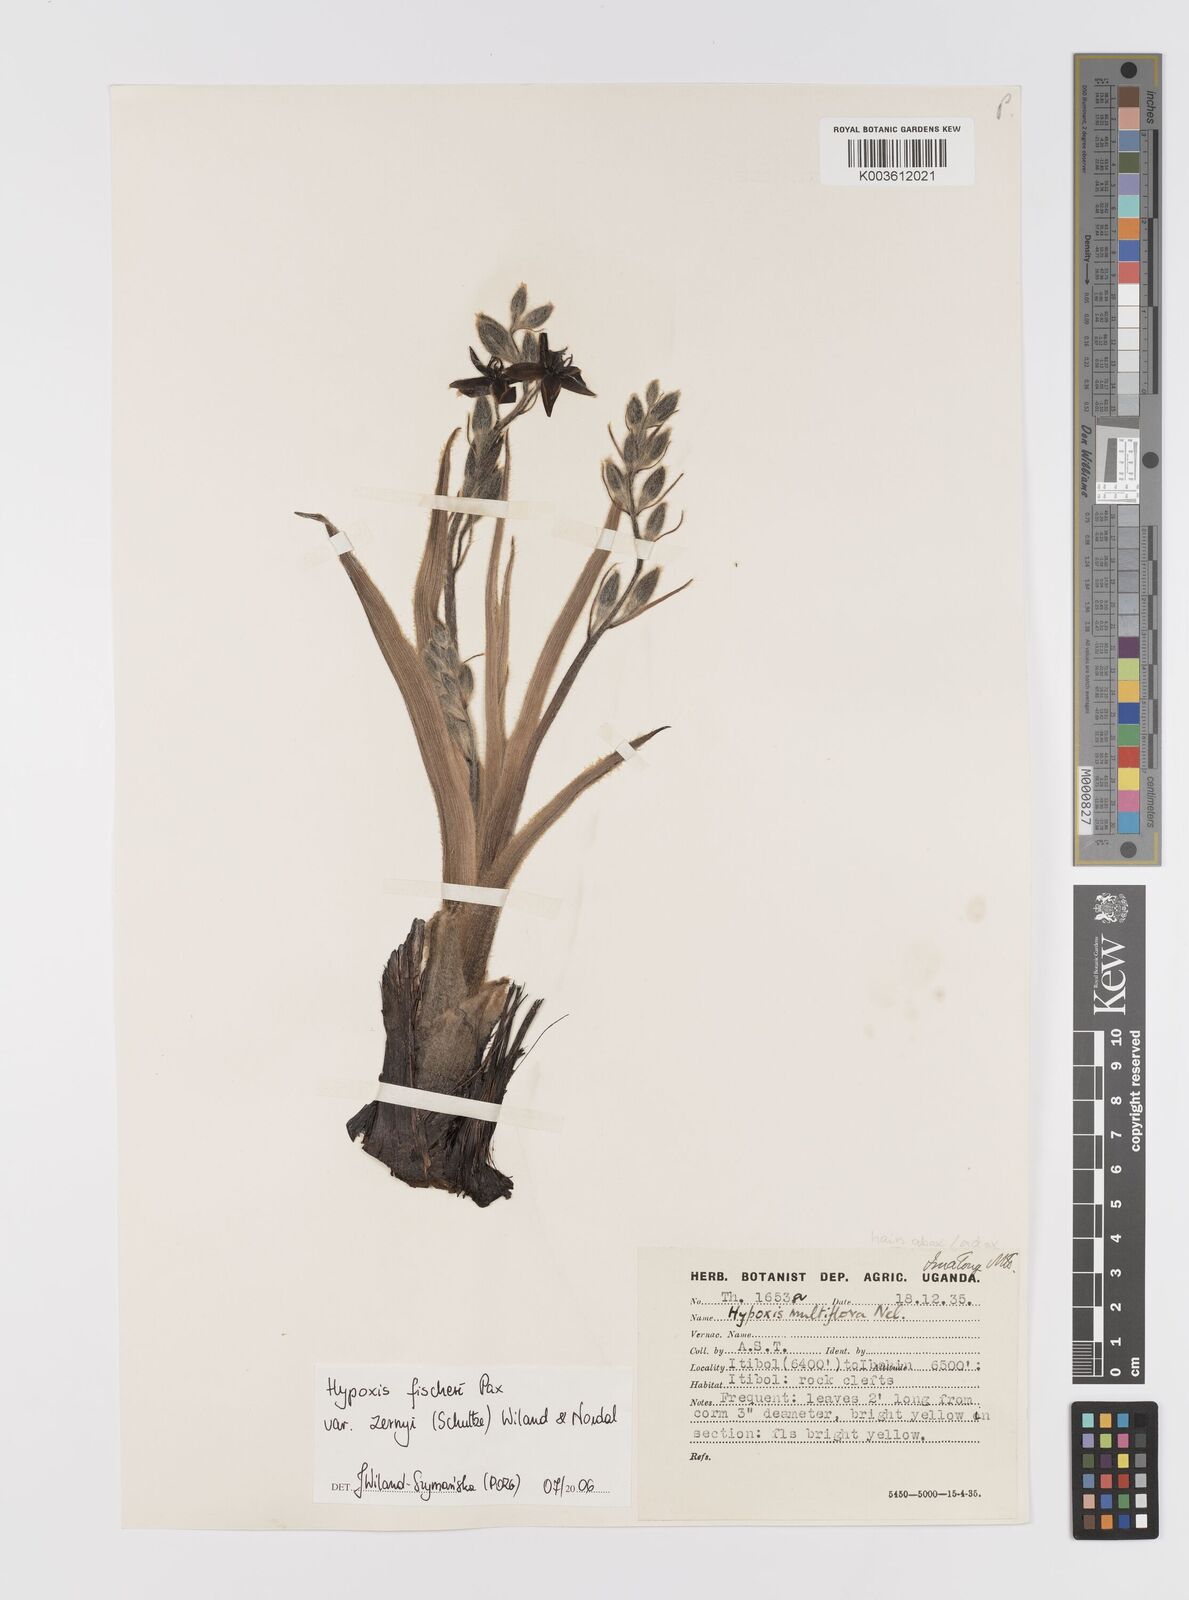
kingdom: Plantae
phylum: Tracheophyta
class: Liliopsida
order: Asparagales
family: Hypoxidaceae
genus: Hypoxis
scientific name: Hypoxis fischeri
